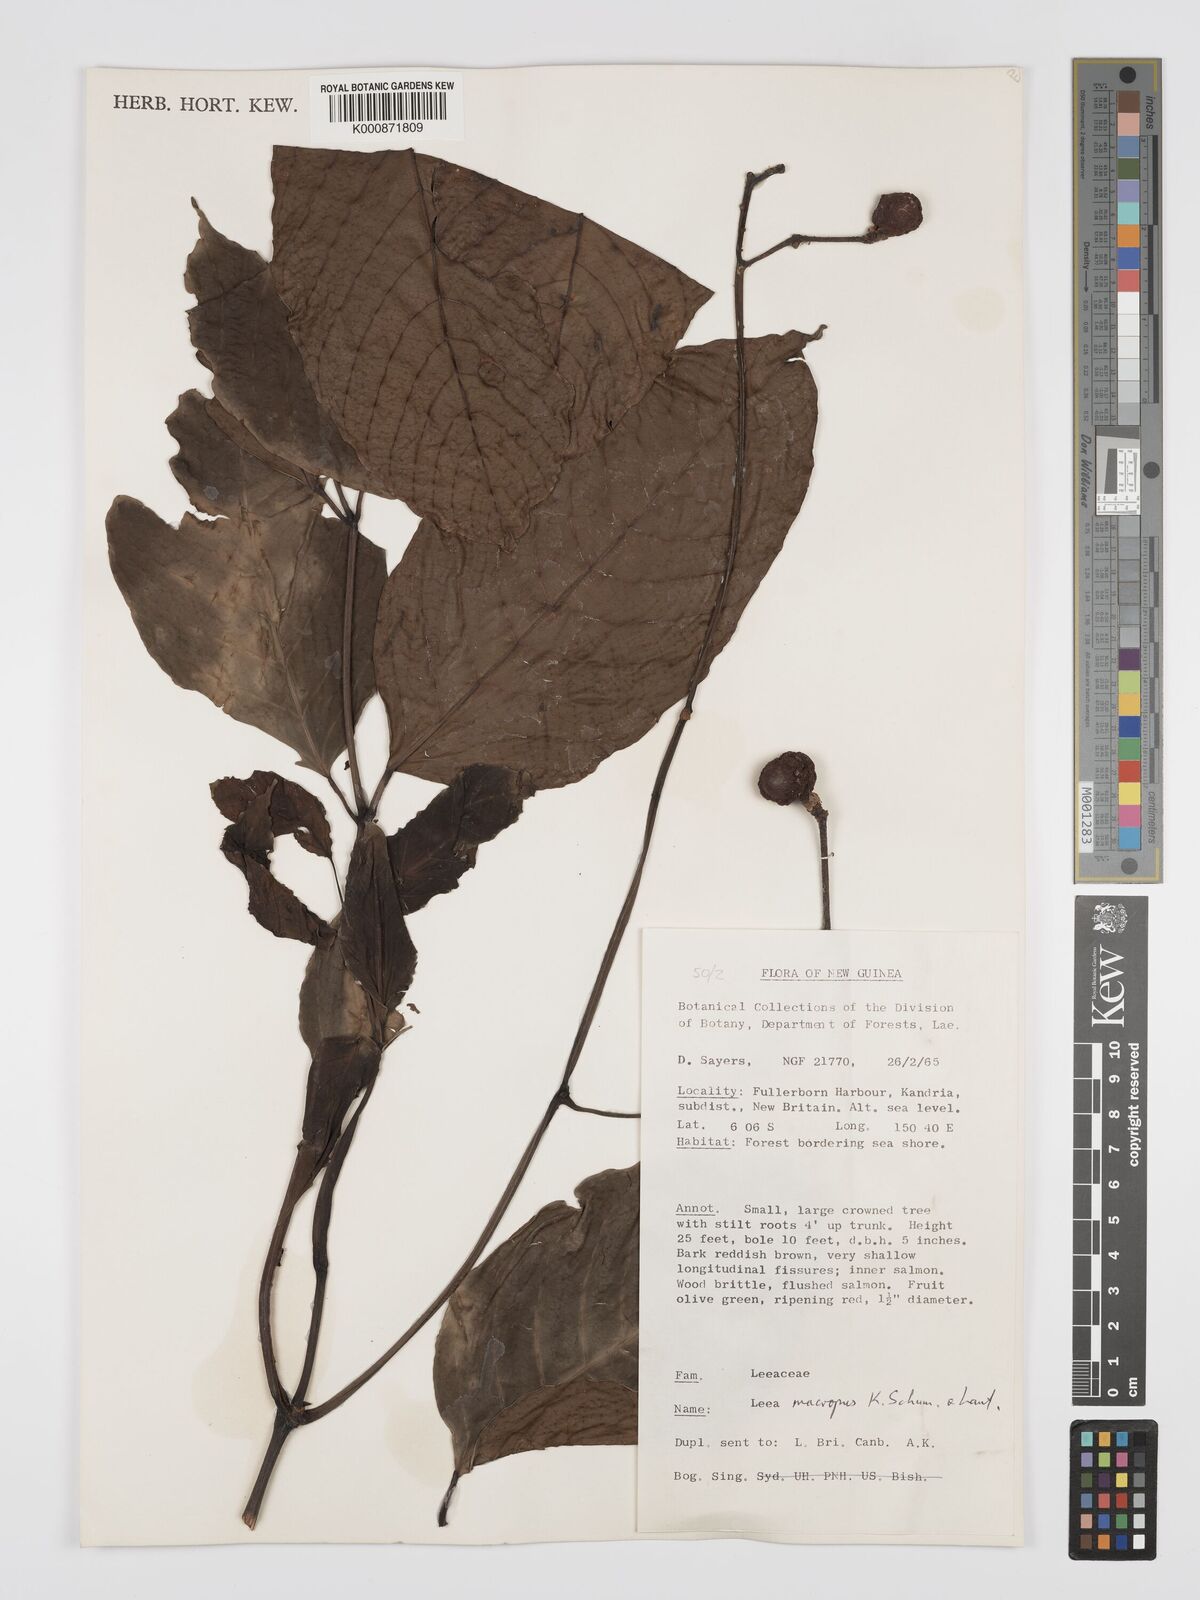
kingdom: Plantae
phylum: Tracheophyta
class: Magnoliopsida
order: Vitales
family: Vitaceae
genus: Leea
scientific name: Leea macropus
